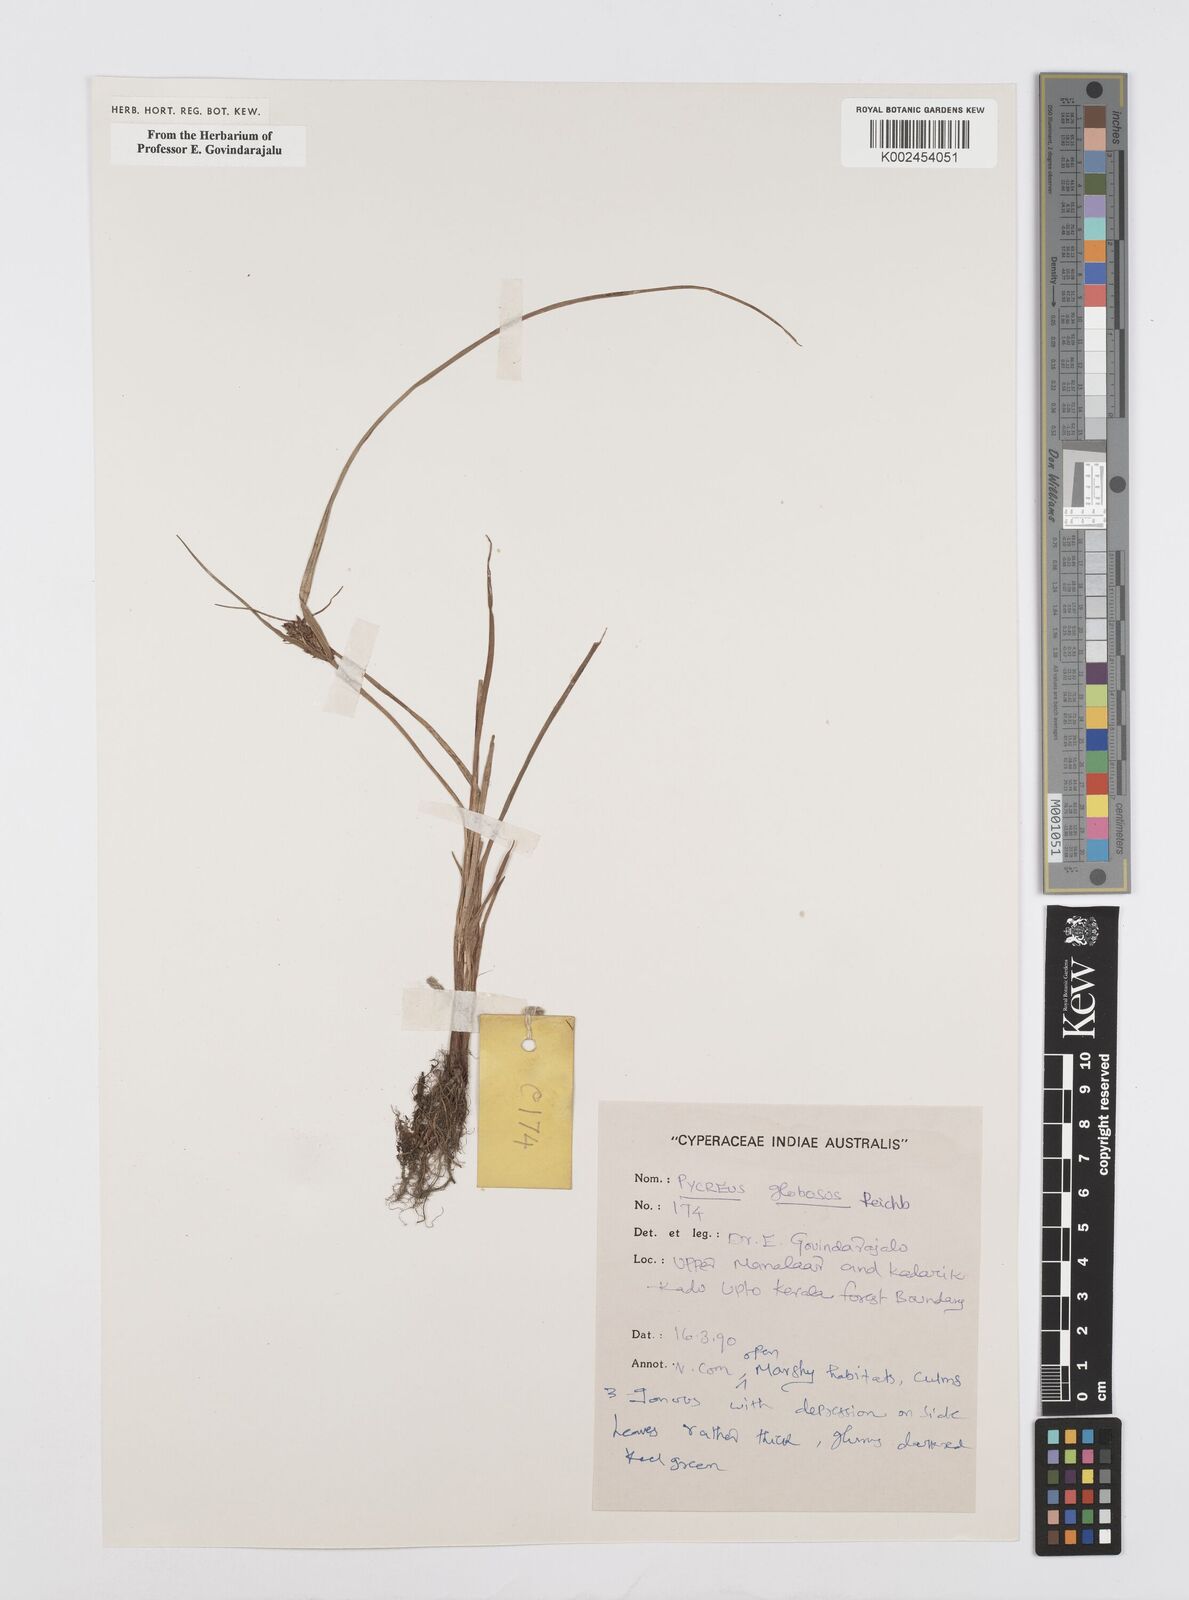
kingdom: Plantae
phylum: Tracheophyta
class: Liliopsida
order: Poales
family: Cyperaceae
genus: Cyperus
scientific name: Cyperus flavidus
